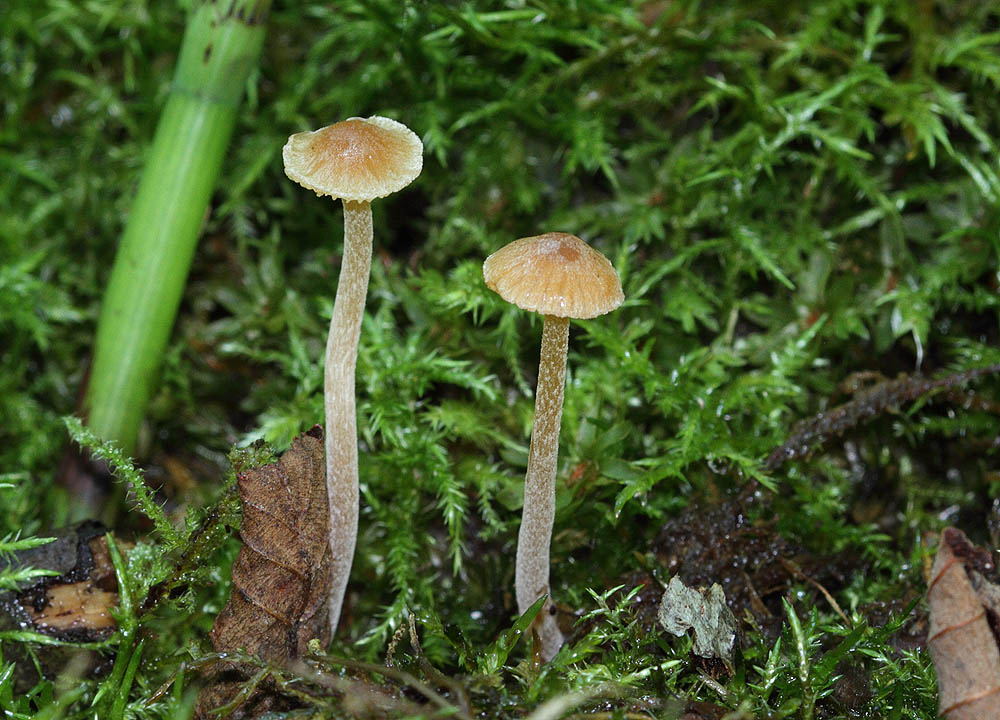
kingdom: Fungi
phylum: Basidiomycota
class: Agaricomycetes
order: Agaricales
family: Hymenogastraceae
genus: Galerina
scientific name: Galerina clavata
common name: kær-hjelmhat
